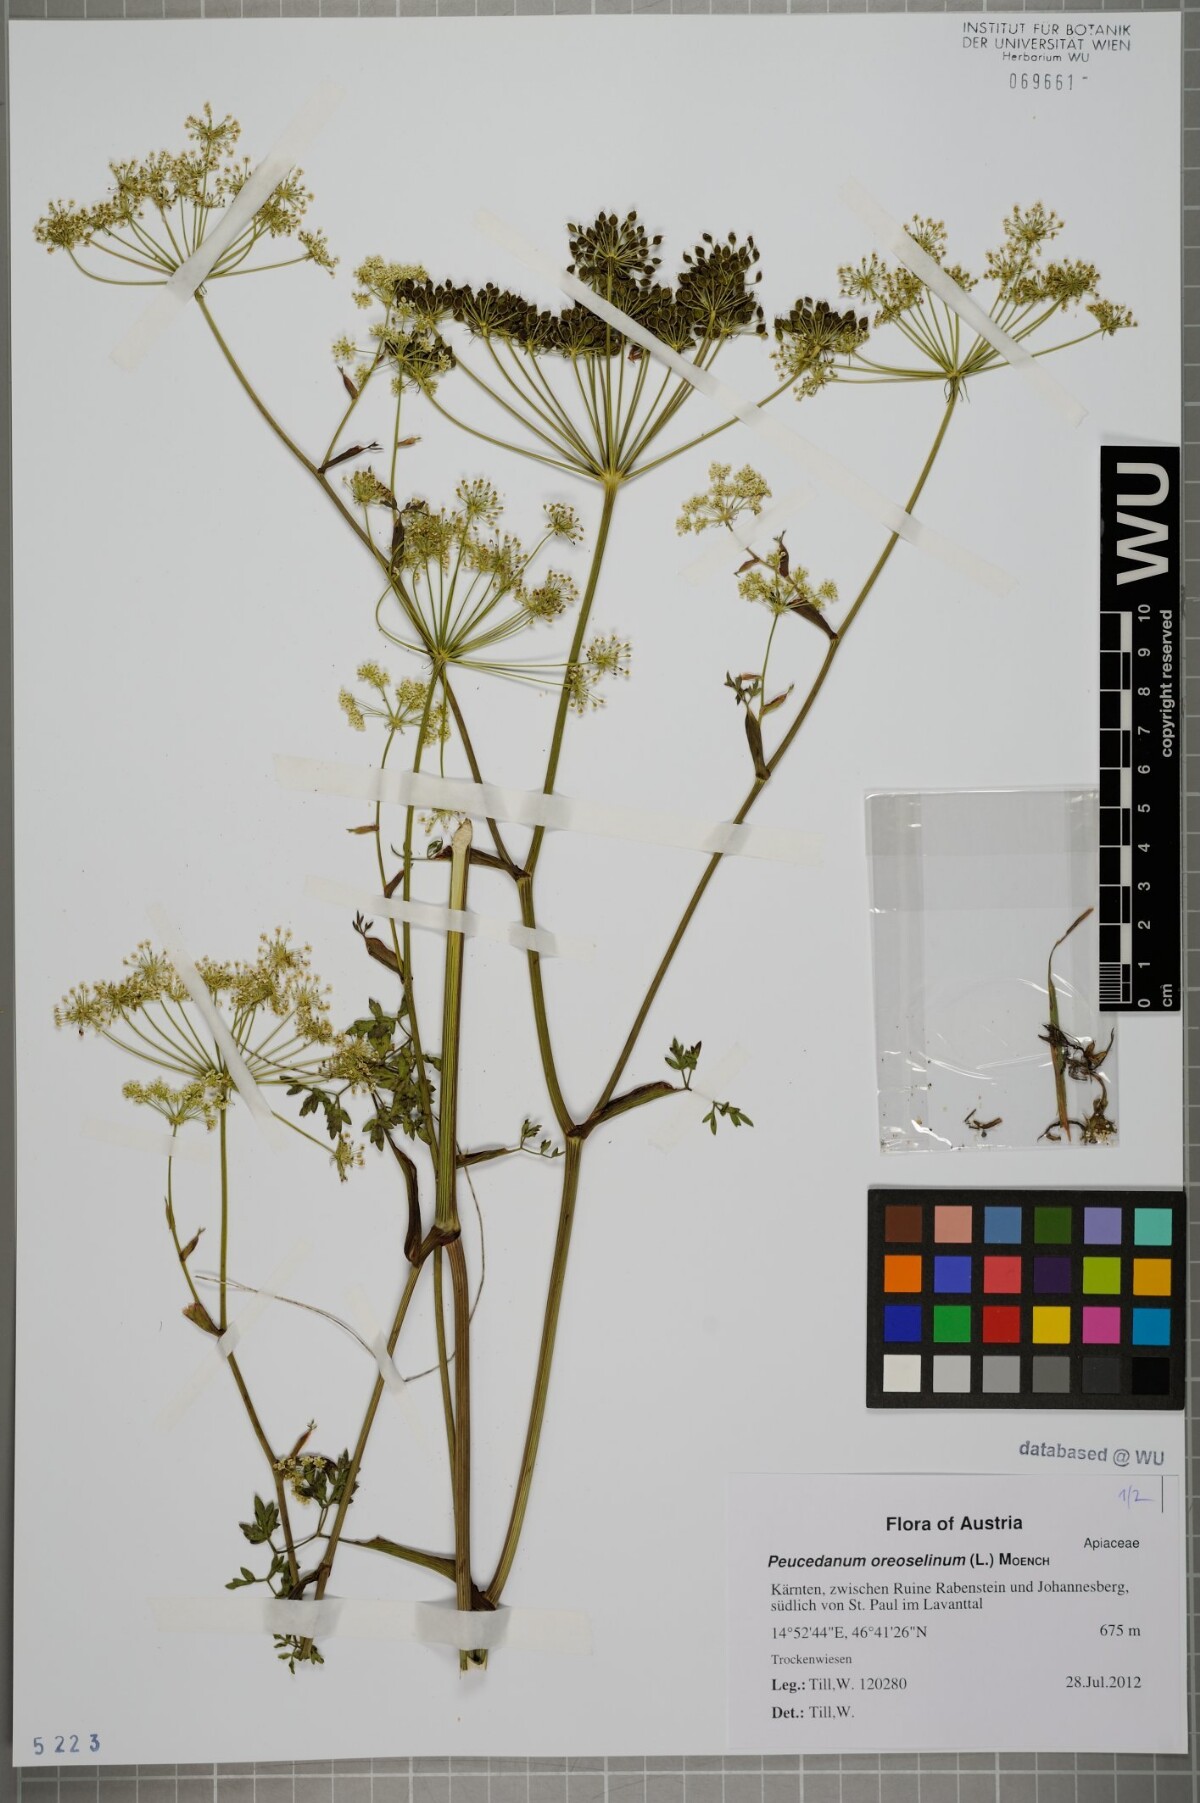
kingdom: Plantae
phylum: Tracheophyta
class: Magnoliopsida
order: Apiales
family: Apiaceae
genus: Oreoselinum
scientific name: Oreoselinum nigrum
